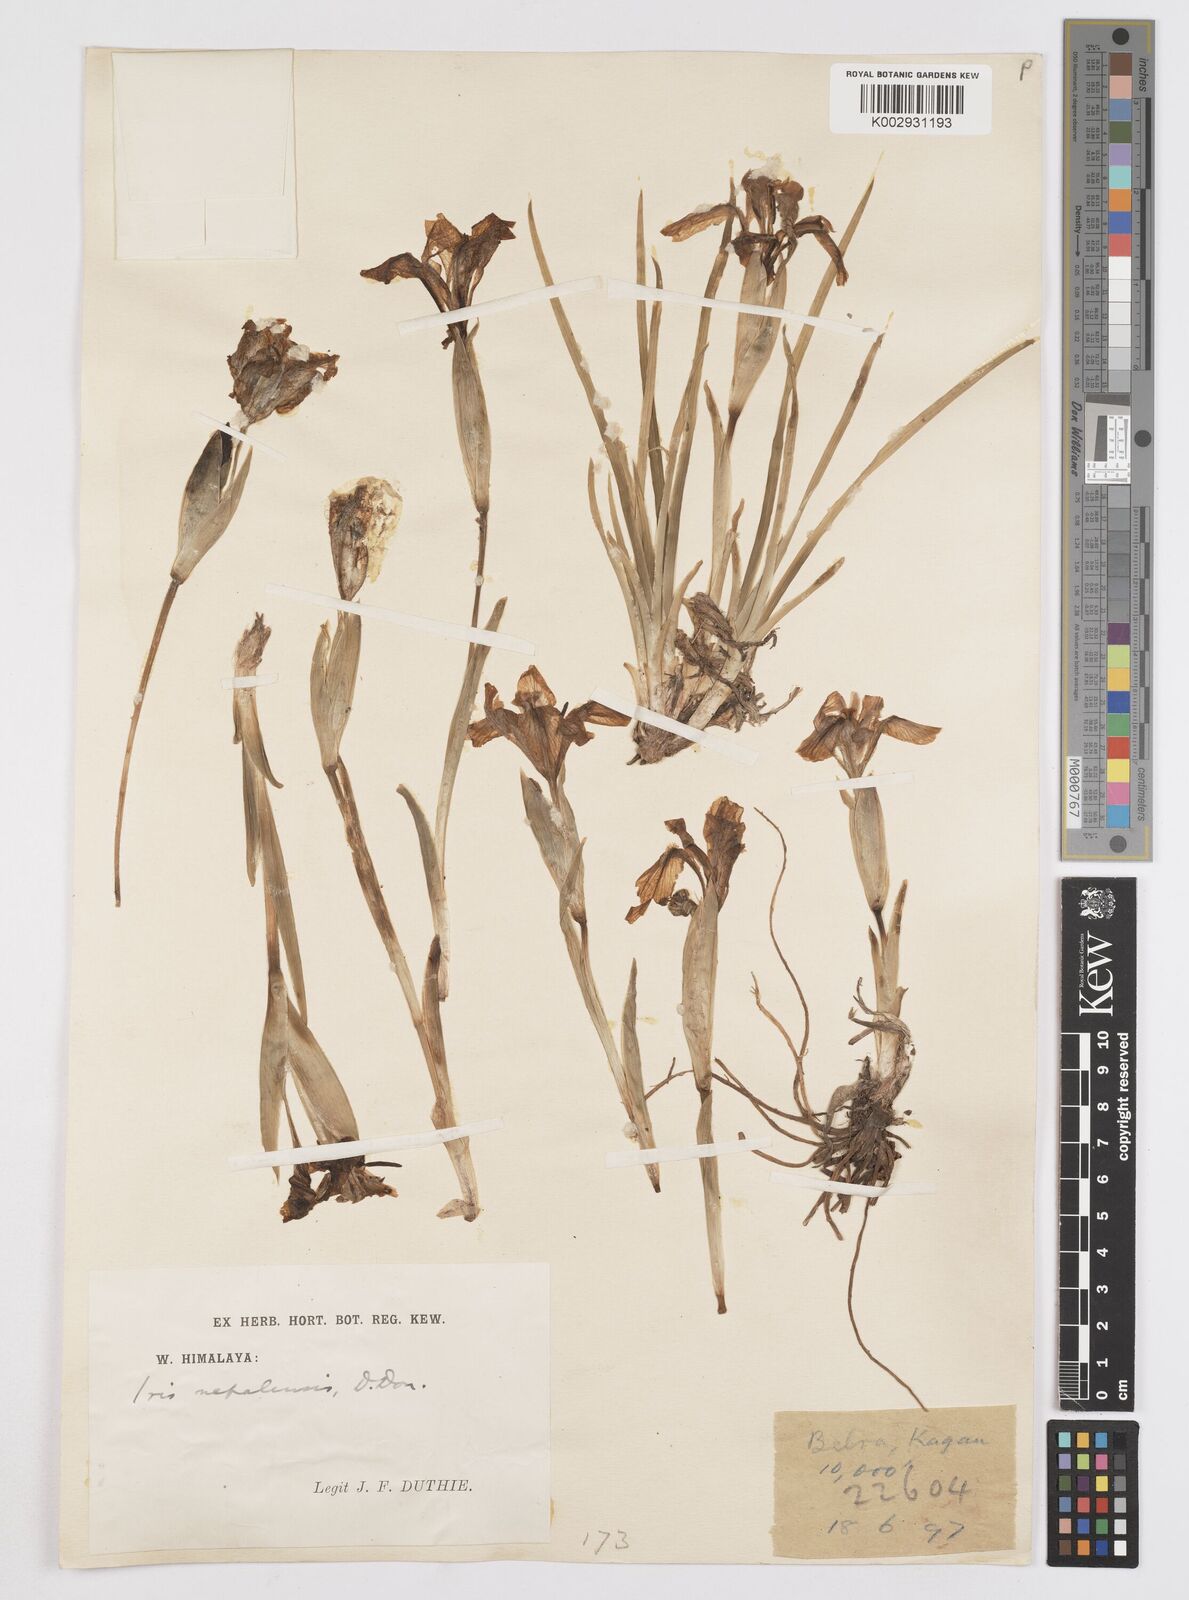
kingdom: Plantae
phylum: Tracheophyta
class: Liliopsida
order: Asparagales
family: Iridaceae
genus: Iris
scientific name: Iris hookeriana
